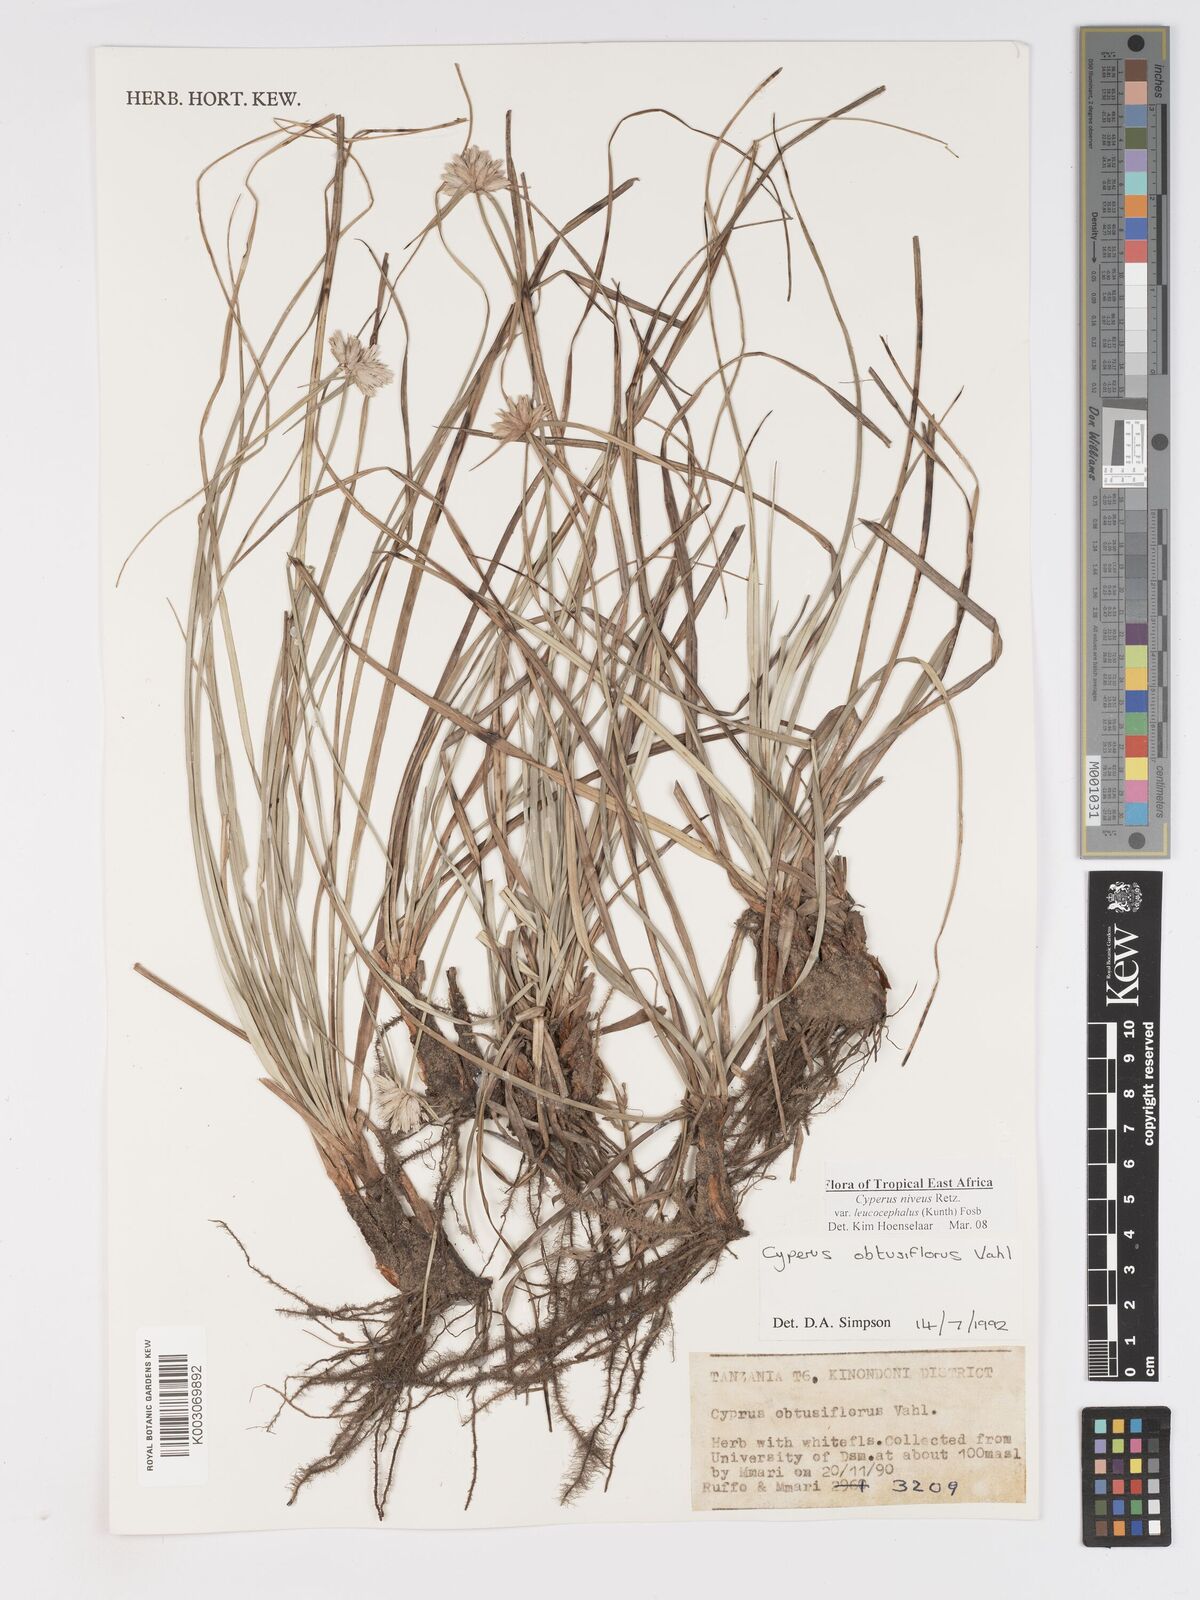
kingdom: Plantae
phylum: Tracheophyta
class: Liliopsida
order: Poales
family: Cyperaceae
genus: Cyperus
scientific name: Cyperus niveus
